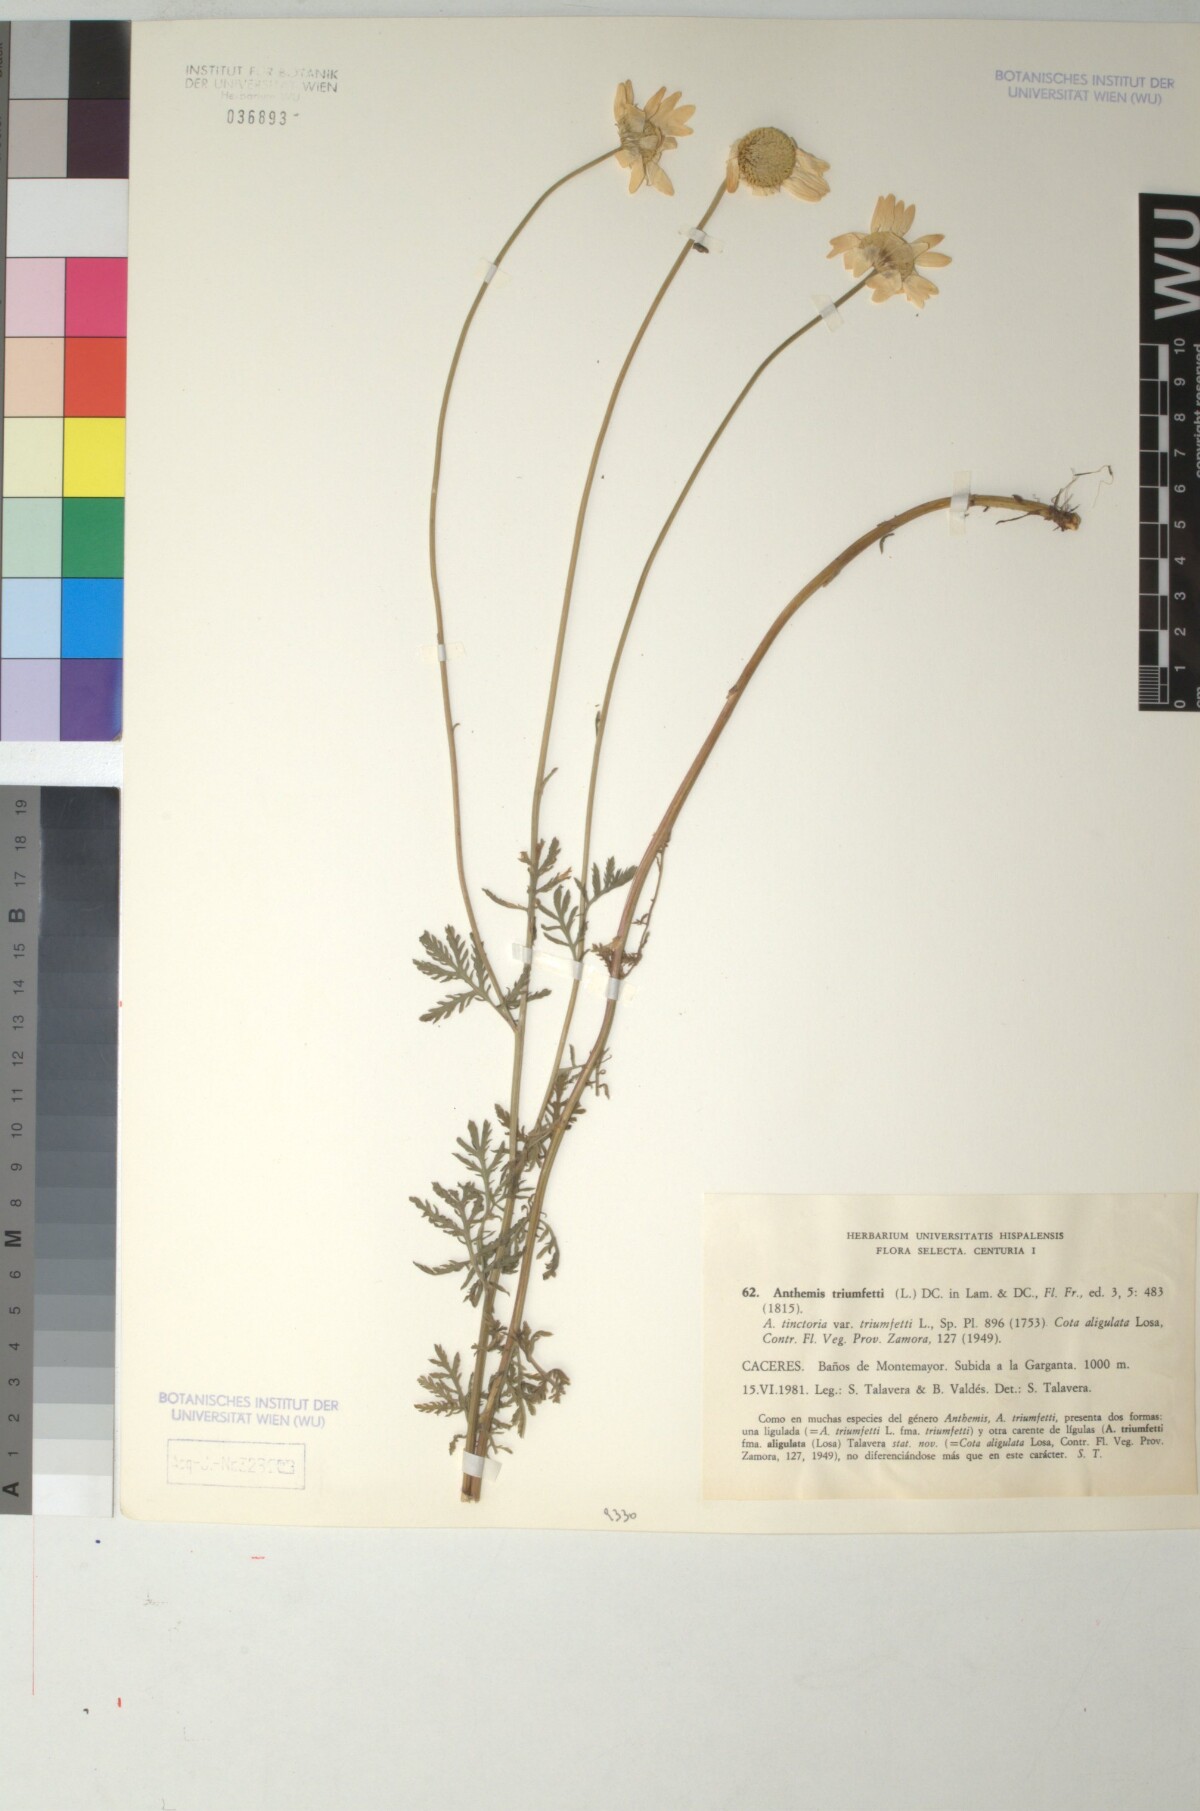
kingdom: Plantae
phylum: Tracheophyta
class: Magnoliopsida
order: Asterales
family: Asteraceae
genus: Cota
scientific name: Cota triumfetti
